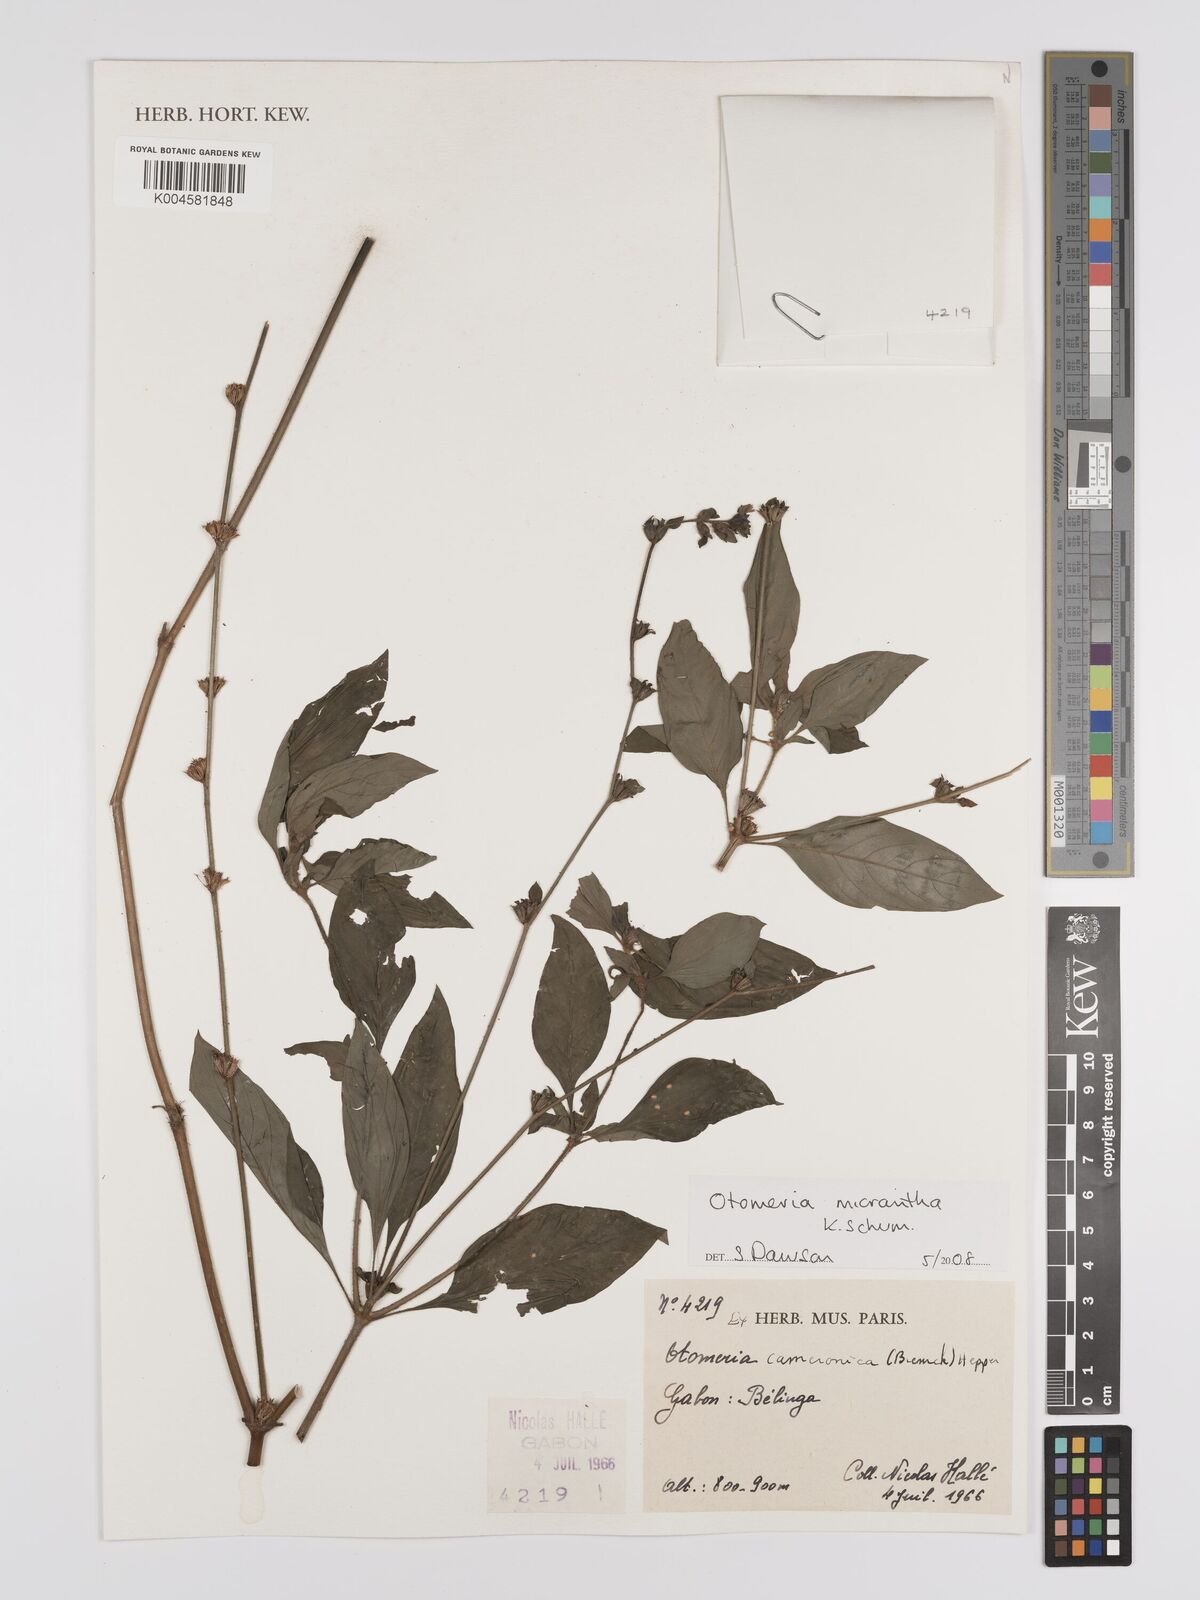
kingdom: Plantae
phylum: Tracheophyta
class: Magnoliopsida
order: Gentianales
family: Rubiaceae
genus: Otomeria
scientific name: Otomeria micrantha
